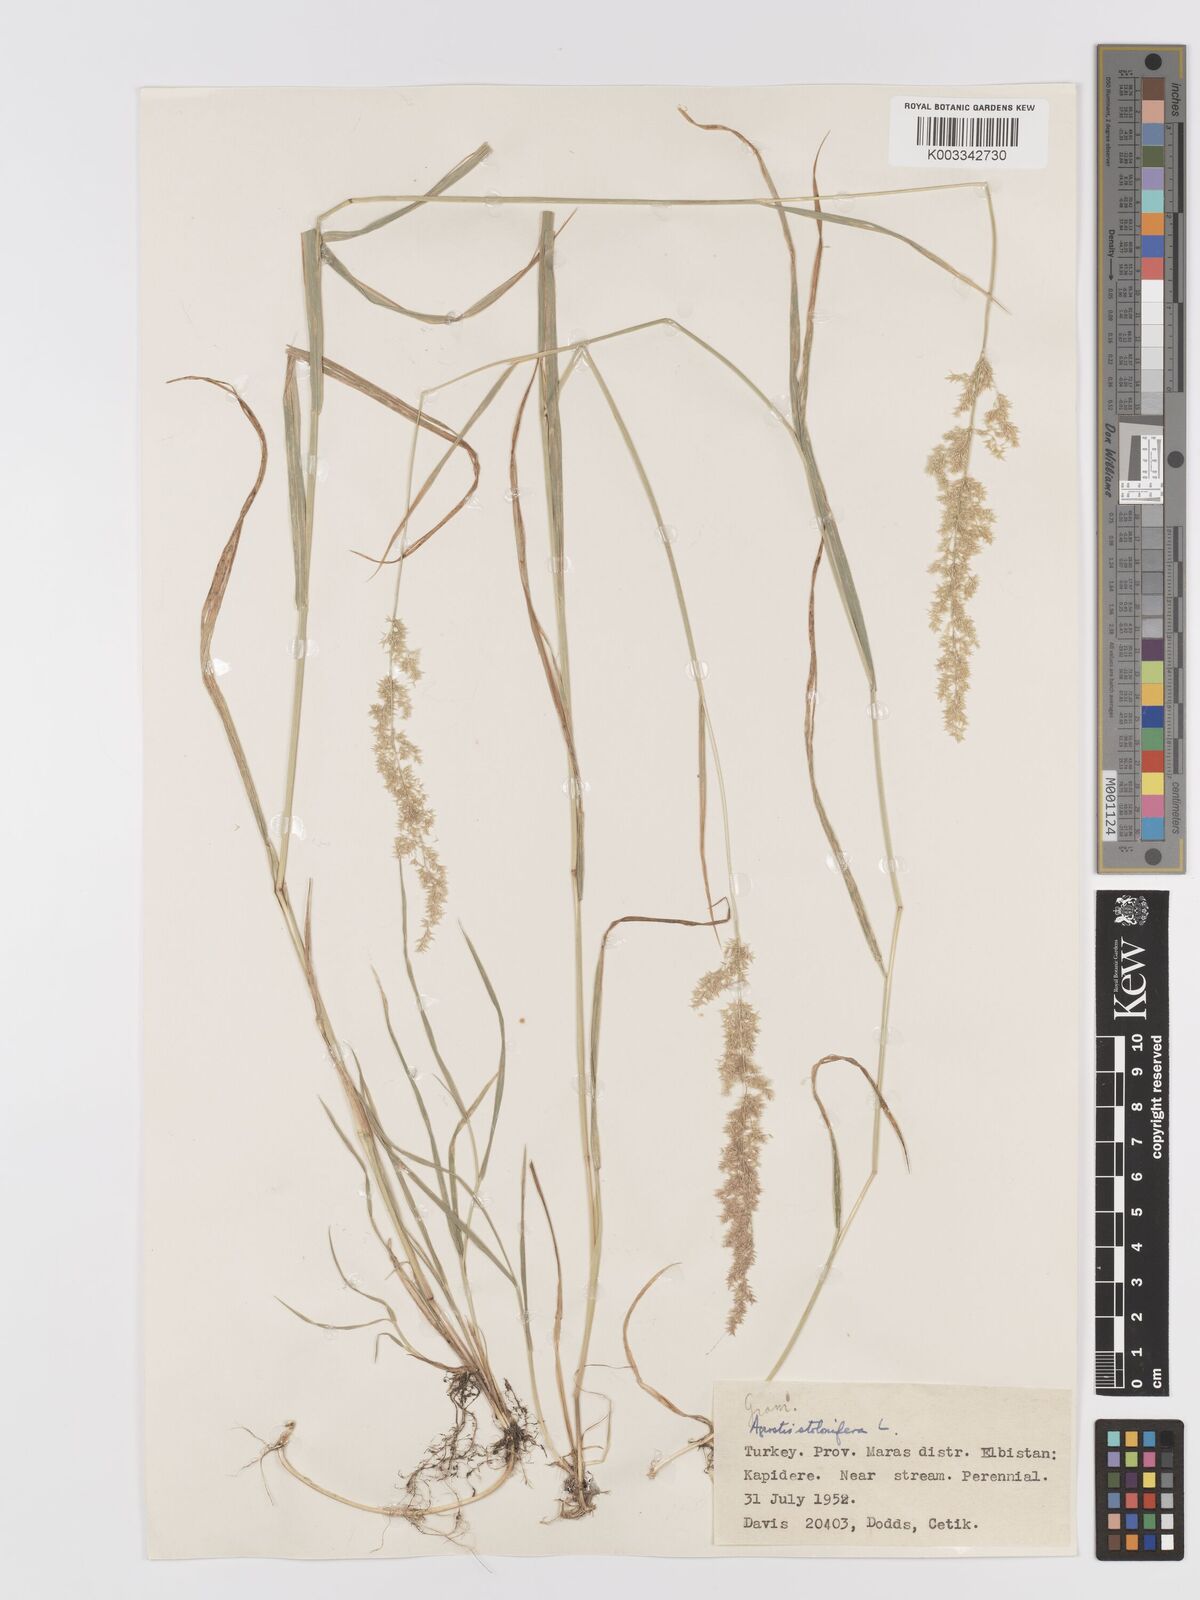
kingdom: Plantae
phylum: Tracheophyta
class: Liliopsida
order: Poales
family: Poaceae
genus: Agrostis
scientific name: Agrostis stolonifera
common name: Creeping bentgrass
